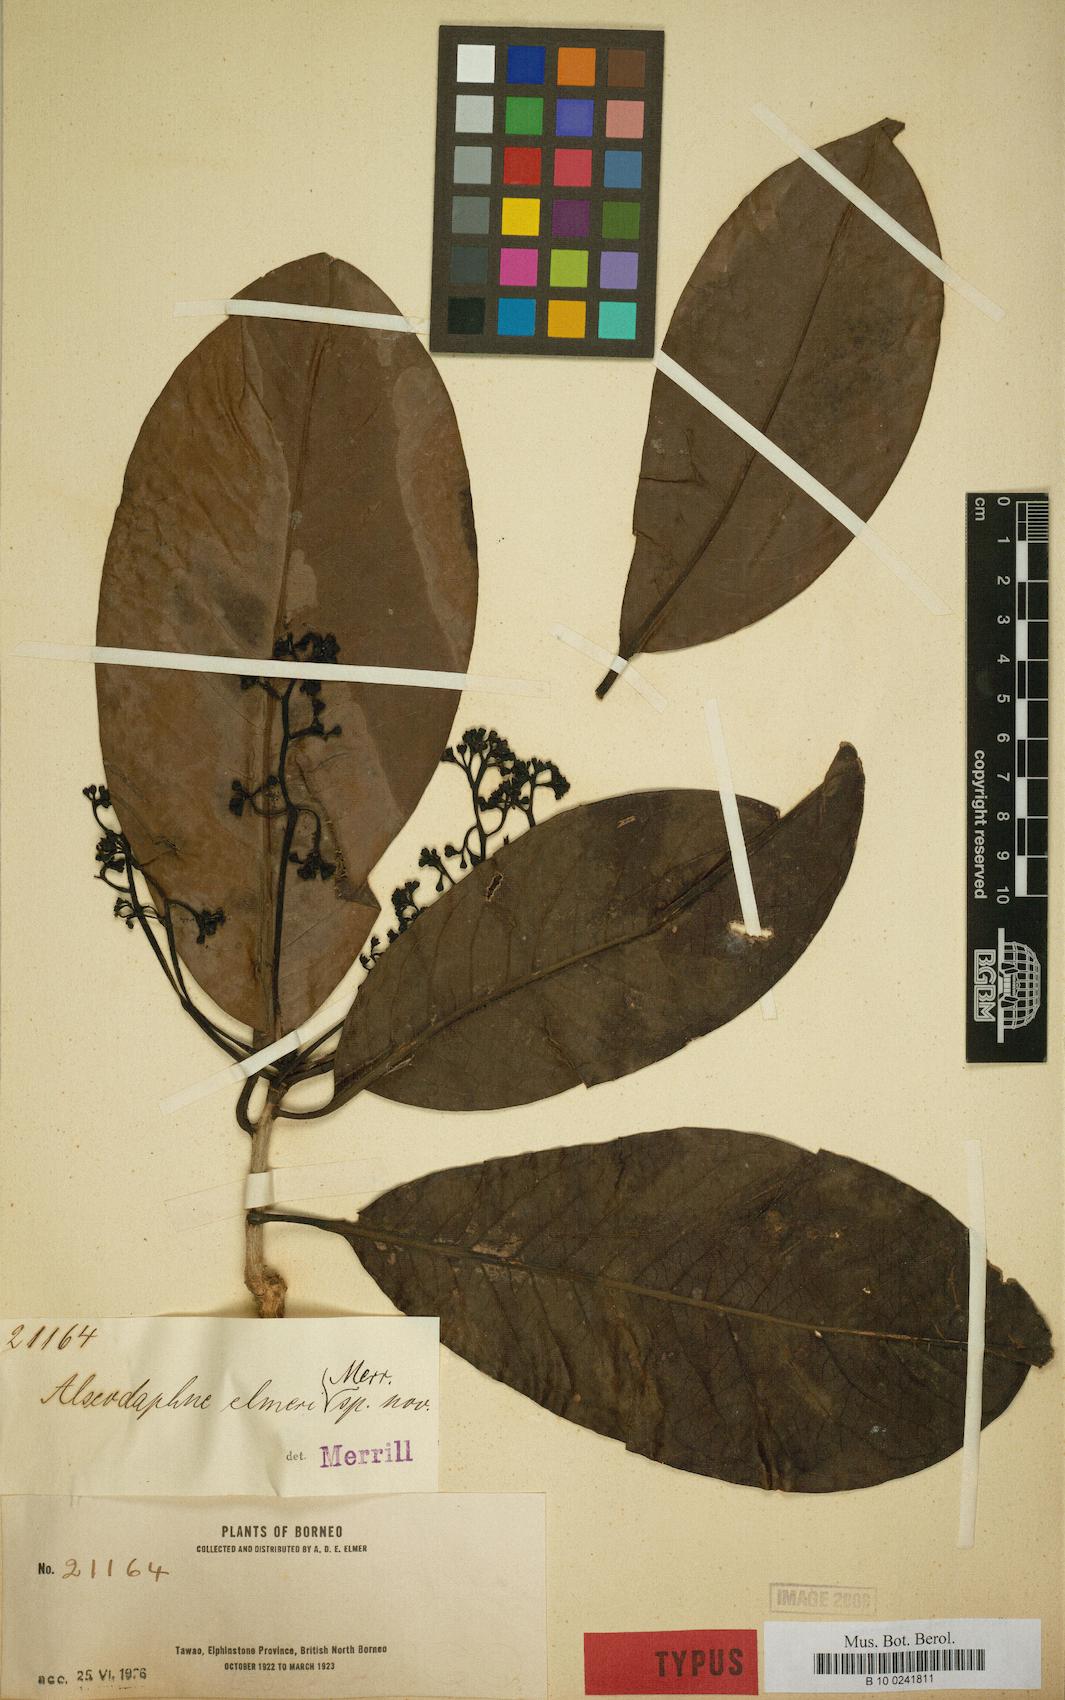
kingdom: Plantae
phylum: Tracheophyta
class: Magnoliopsida
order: Laurales
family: Lauraceae
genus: Alseodaphne
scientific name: Alseodaphne elmeri
